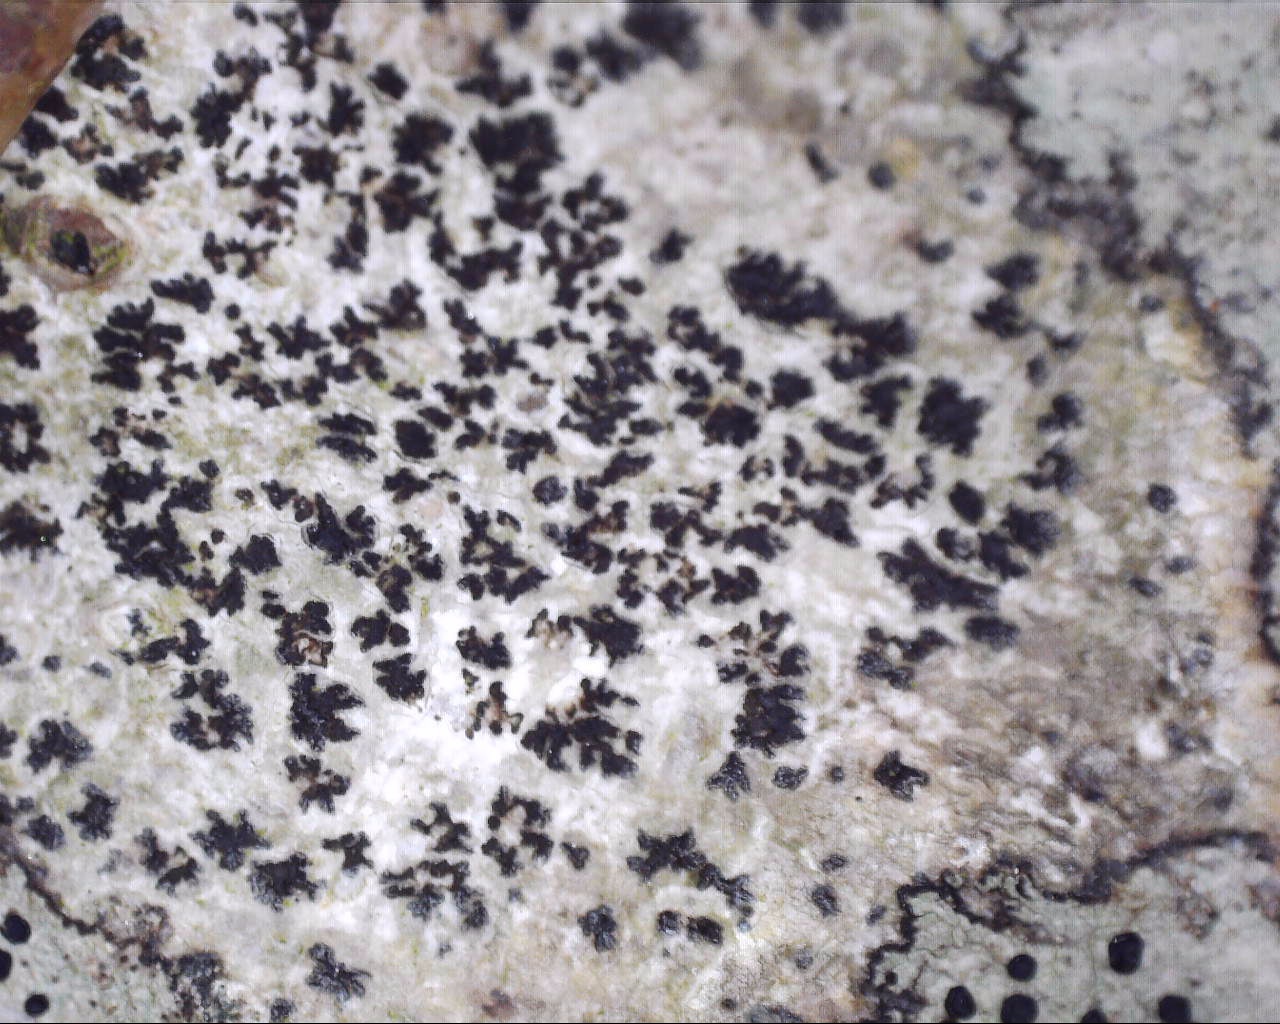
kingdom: Fungi
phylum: Ascomycota
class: Arthoniomycetes
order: Arthoniales
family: Arthoniaceae
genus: Arthonia
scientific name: Arthonia radiata
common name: stjerne-pletlav
